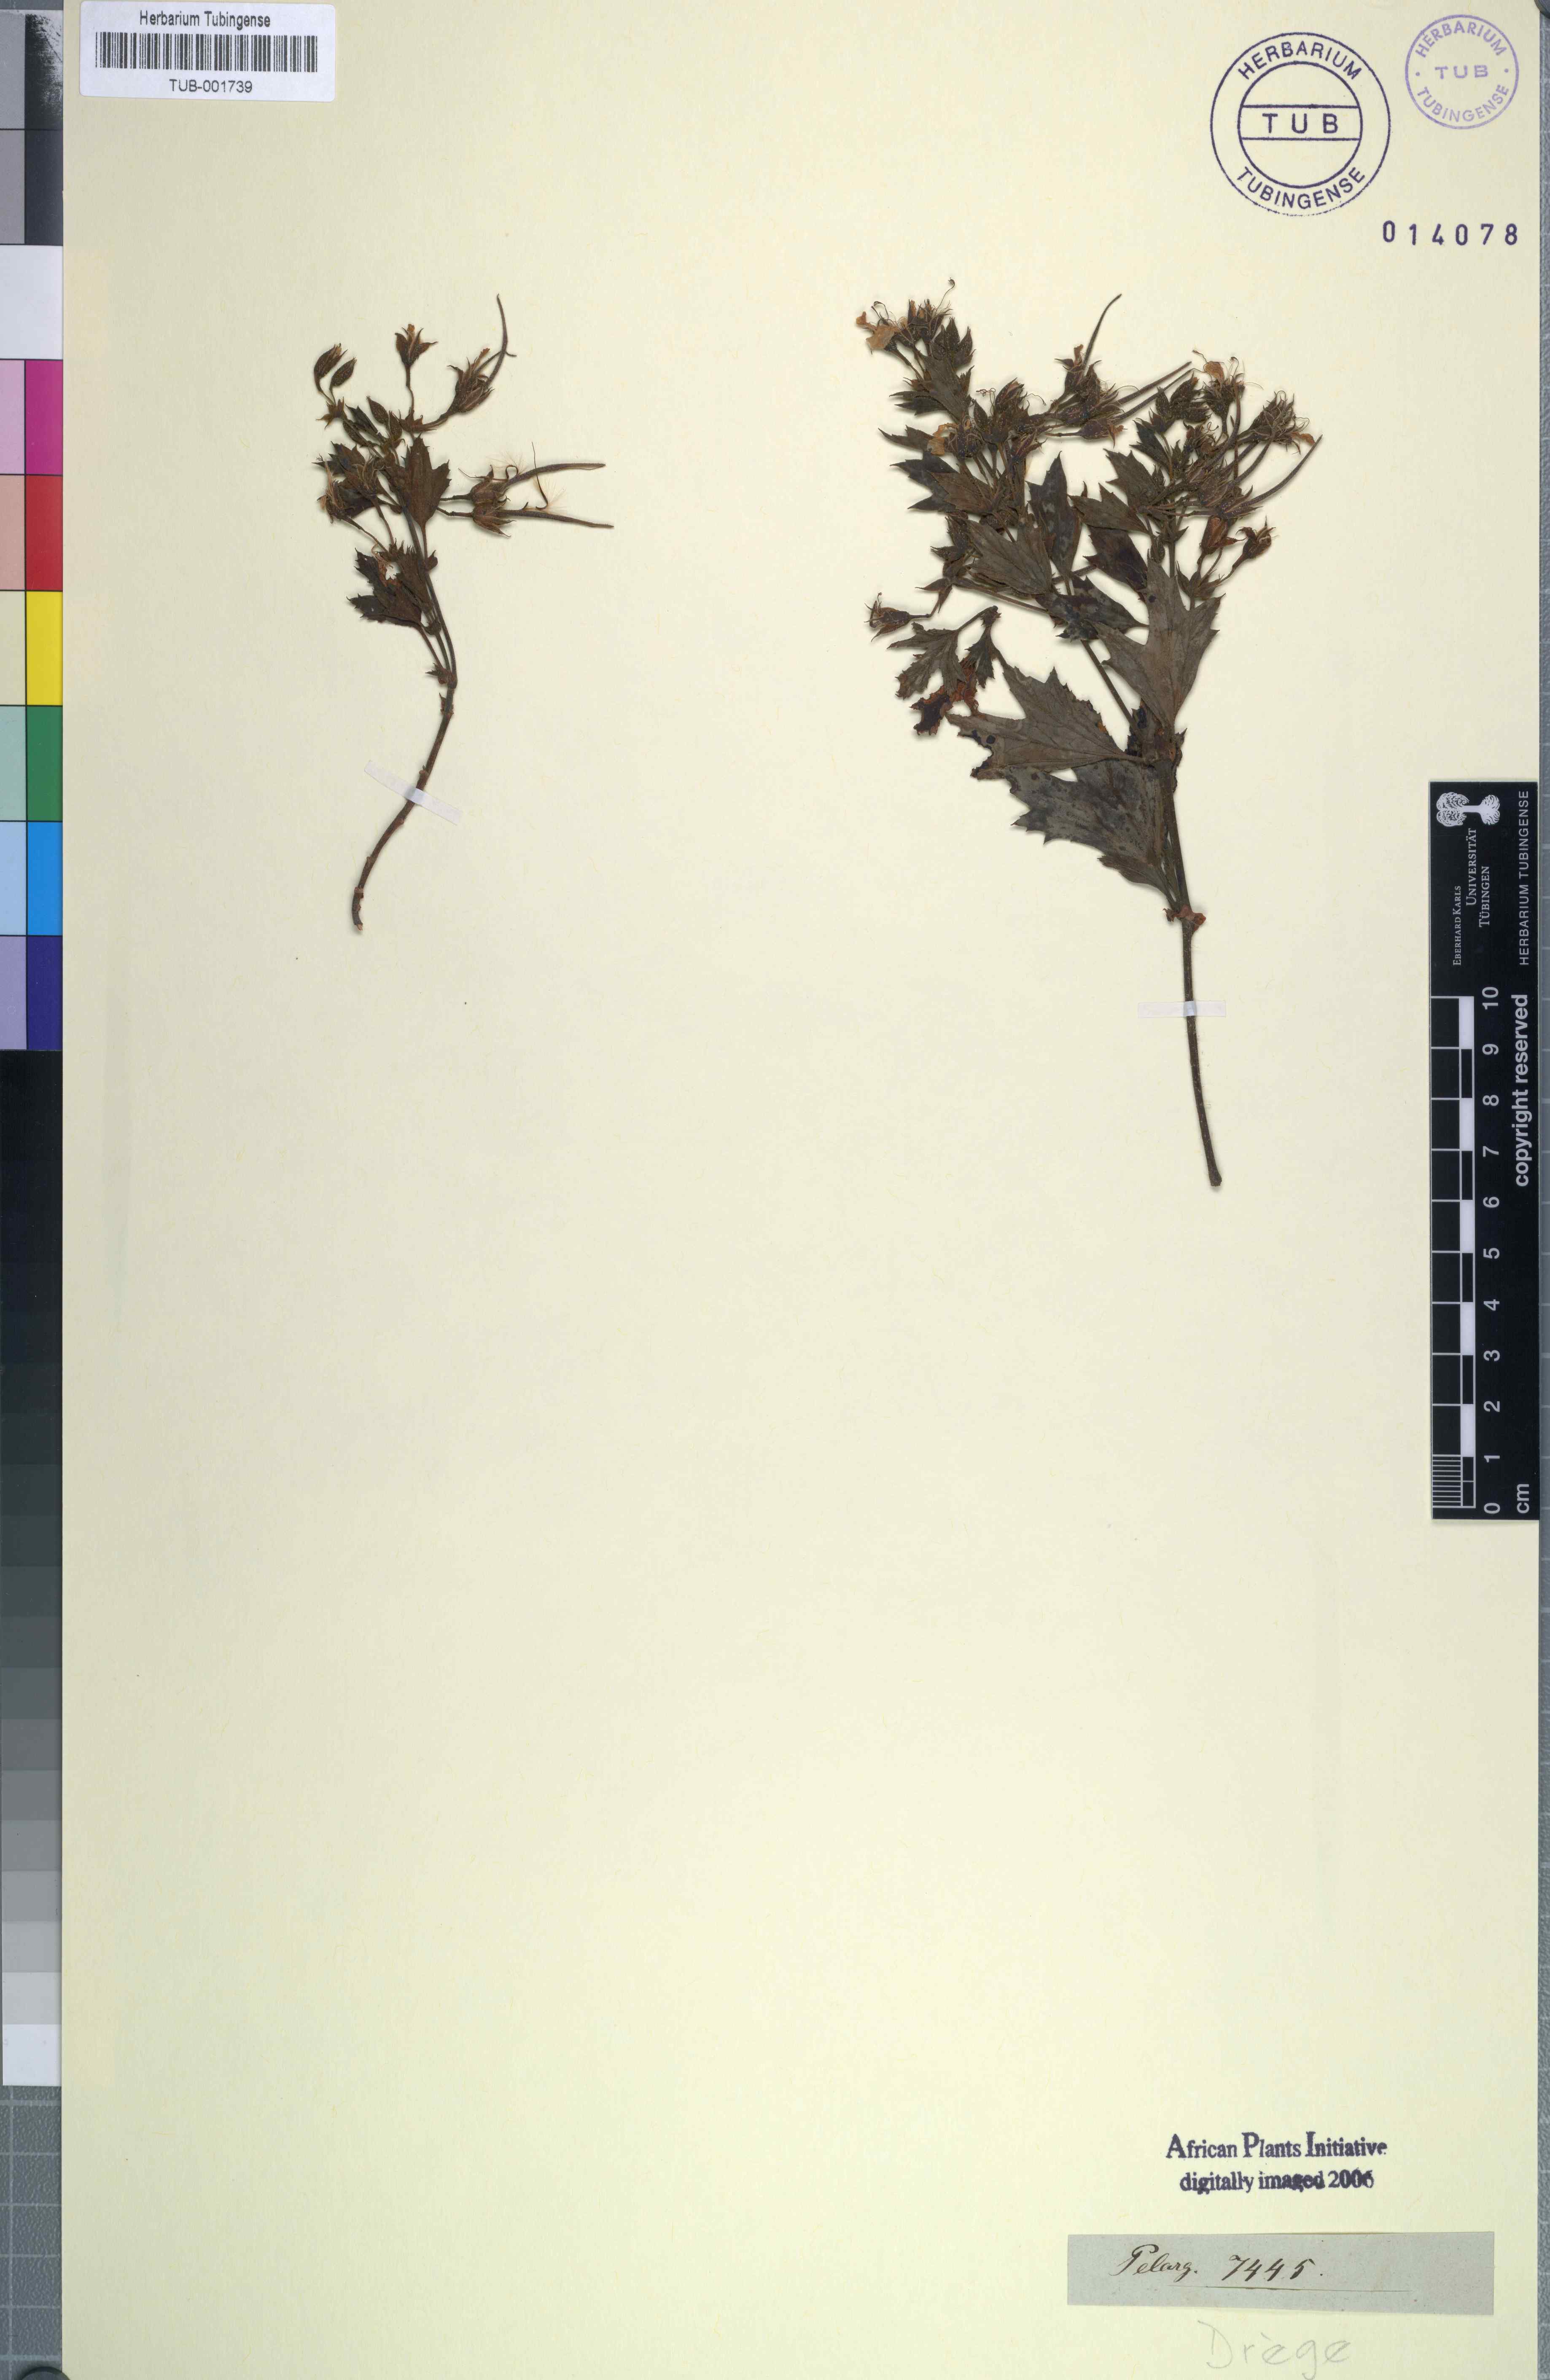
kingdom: Plantae
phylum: Tracheophyta
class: Magnoliopsida
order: Geraniales
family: Geraniaceae
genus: Pelargonium
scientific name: Pelargonium
